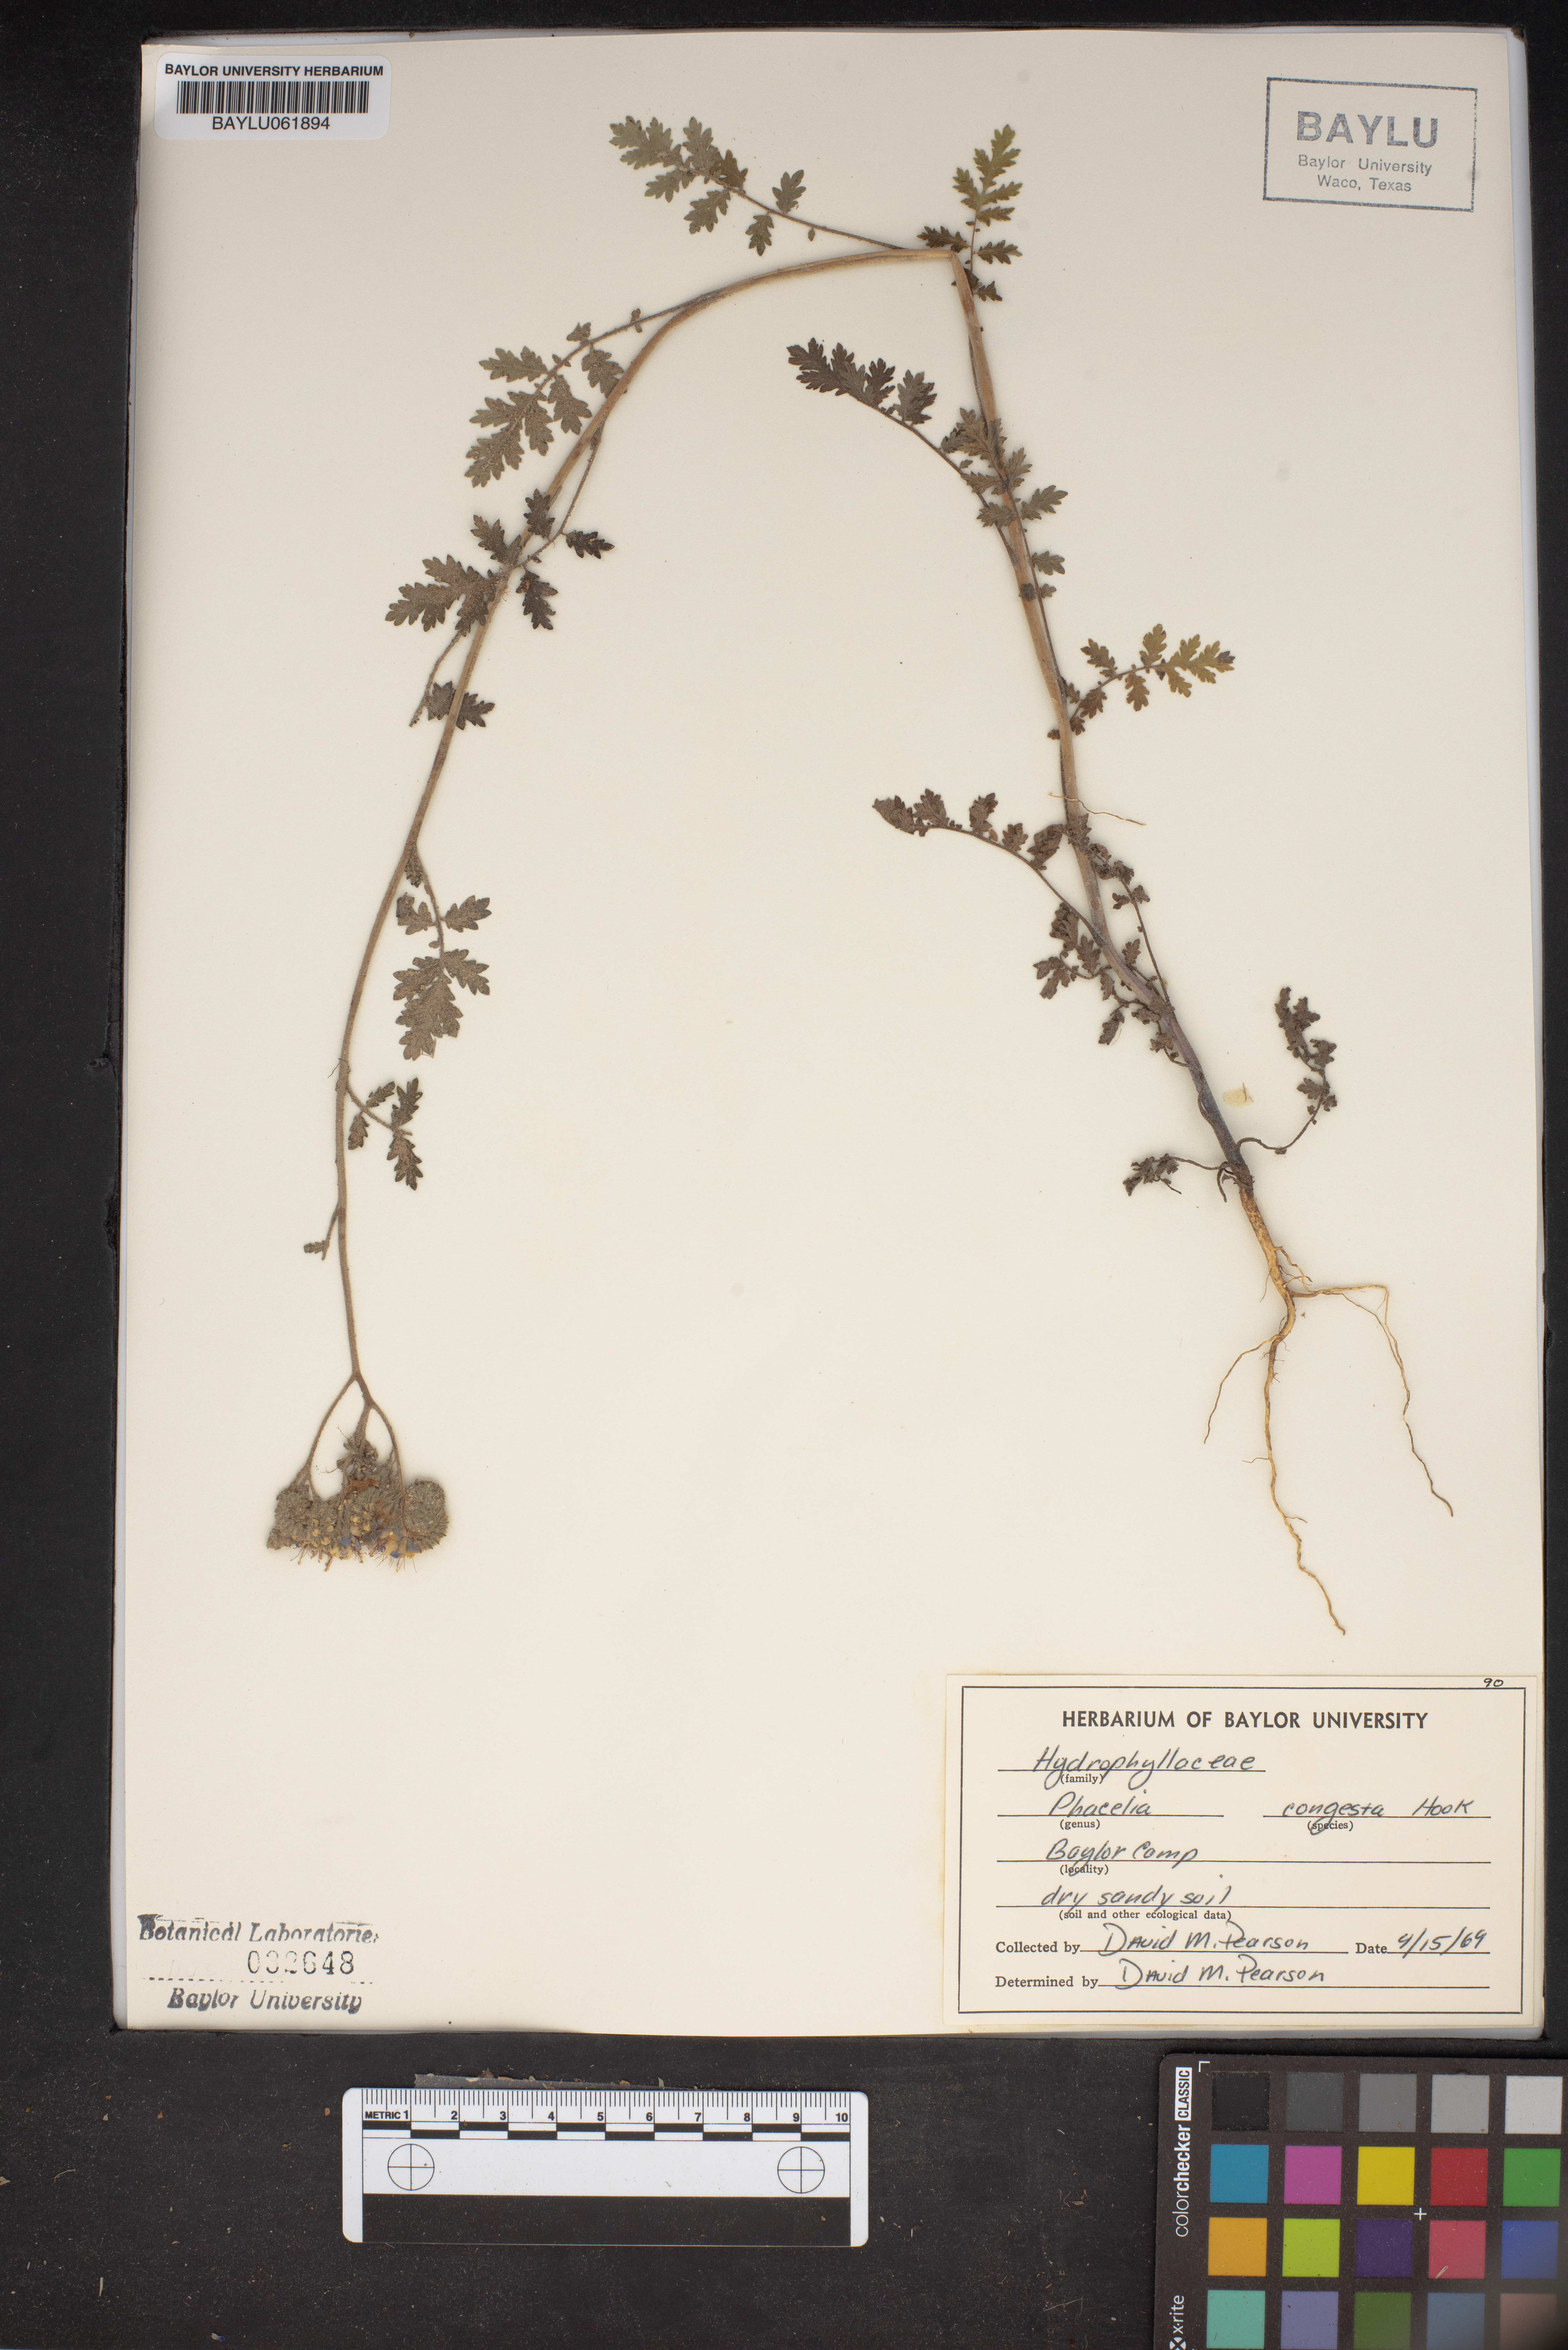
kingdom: Plantae
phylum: Tracheophyta
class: Magnoliopsida
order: Boraginales
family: Hydrophyllaceae
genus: Phacelia
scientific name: Phacelia congesta
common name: Blue curls
